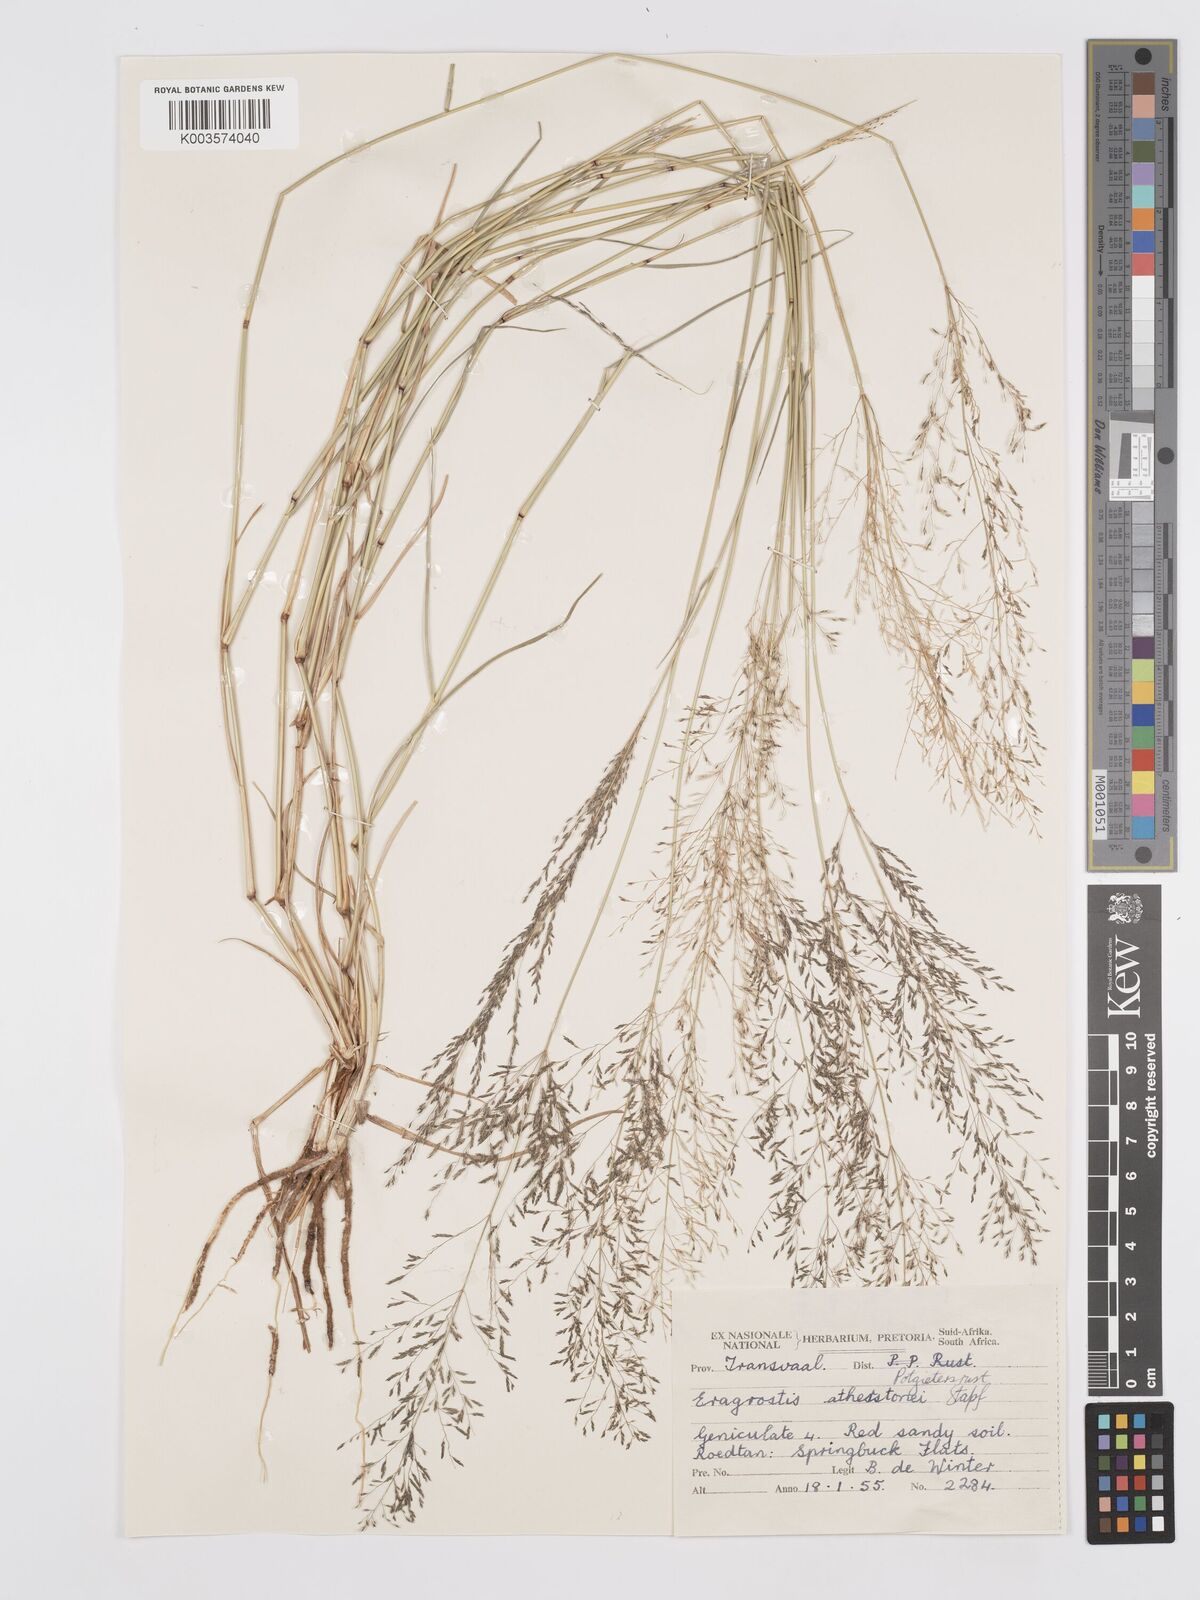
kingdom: Plantae
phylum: Tracheophyta
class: Liliopsida
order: Poales
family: Poaceae
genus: Eragrostis
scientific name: Eragrostis cylindriflora
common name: Cylinderflower lovegrass
